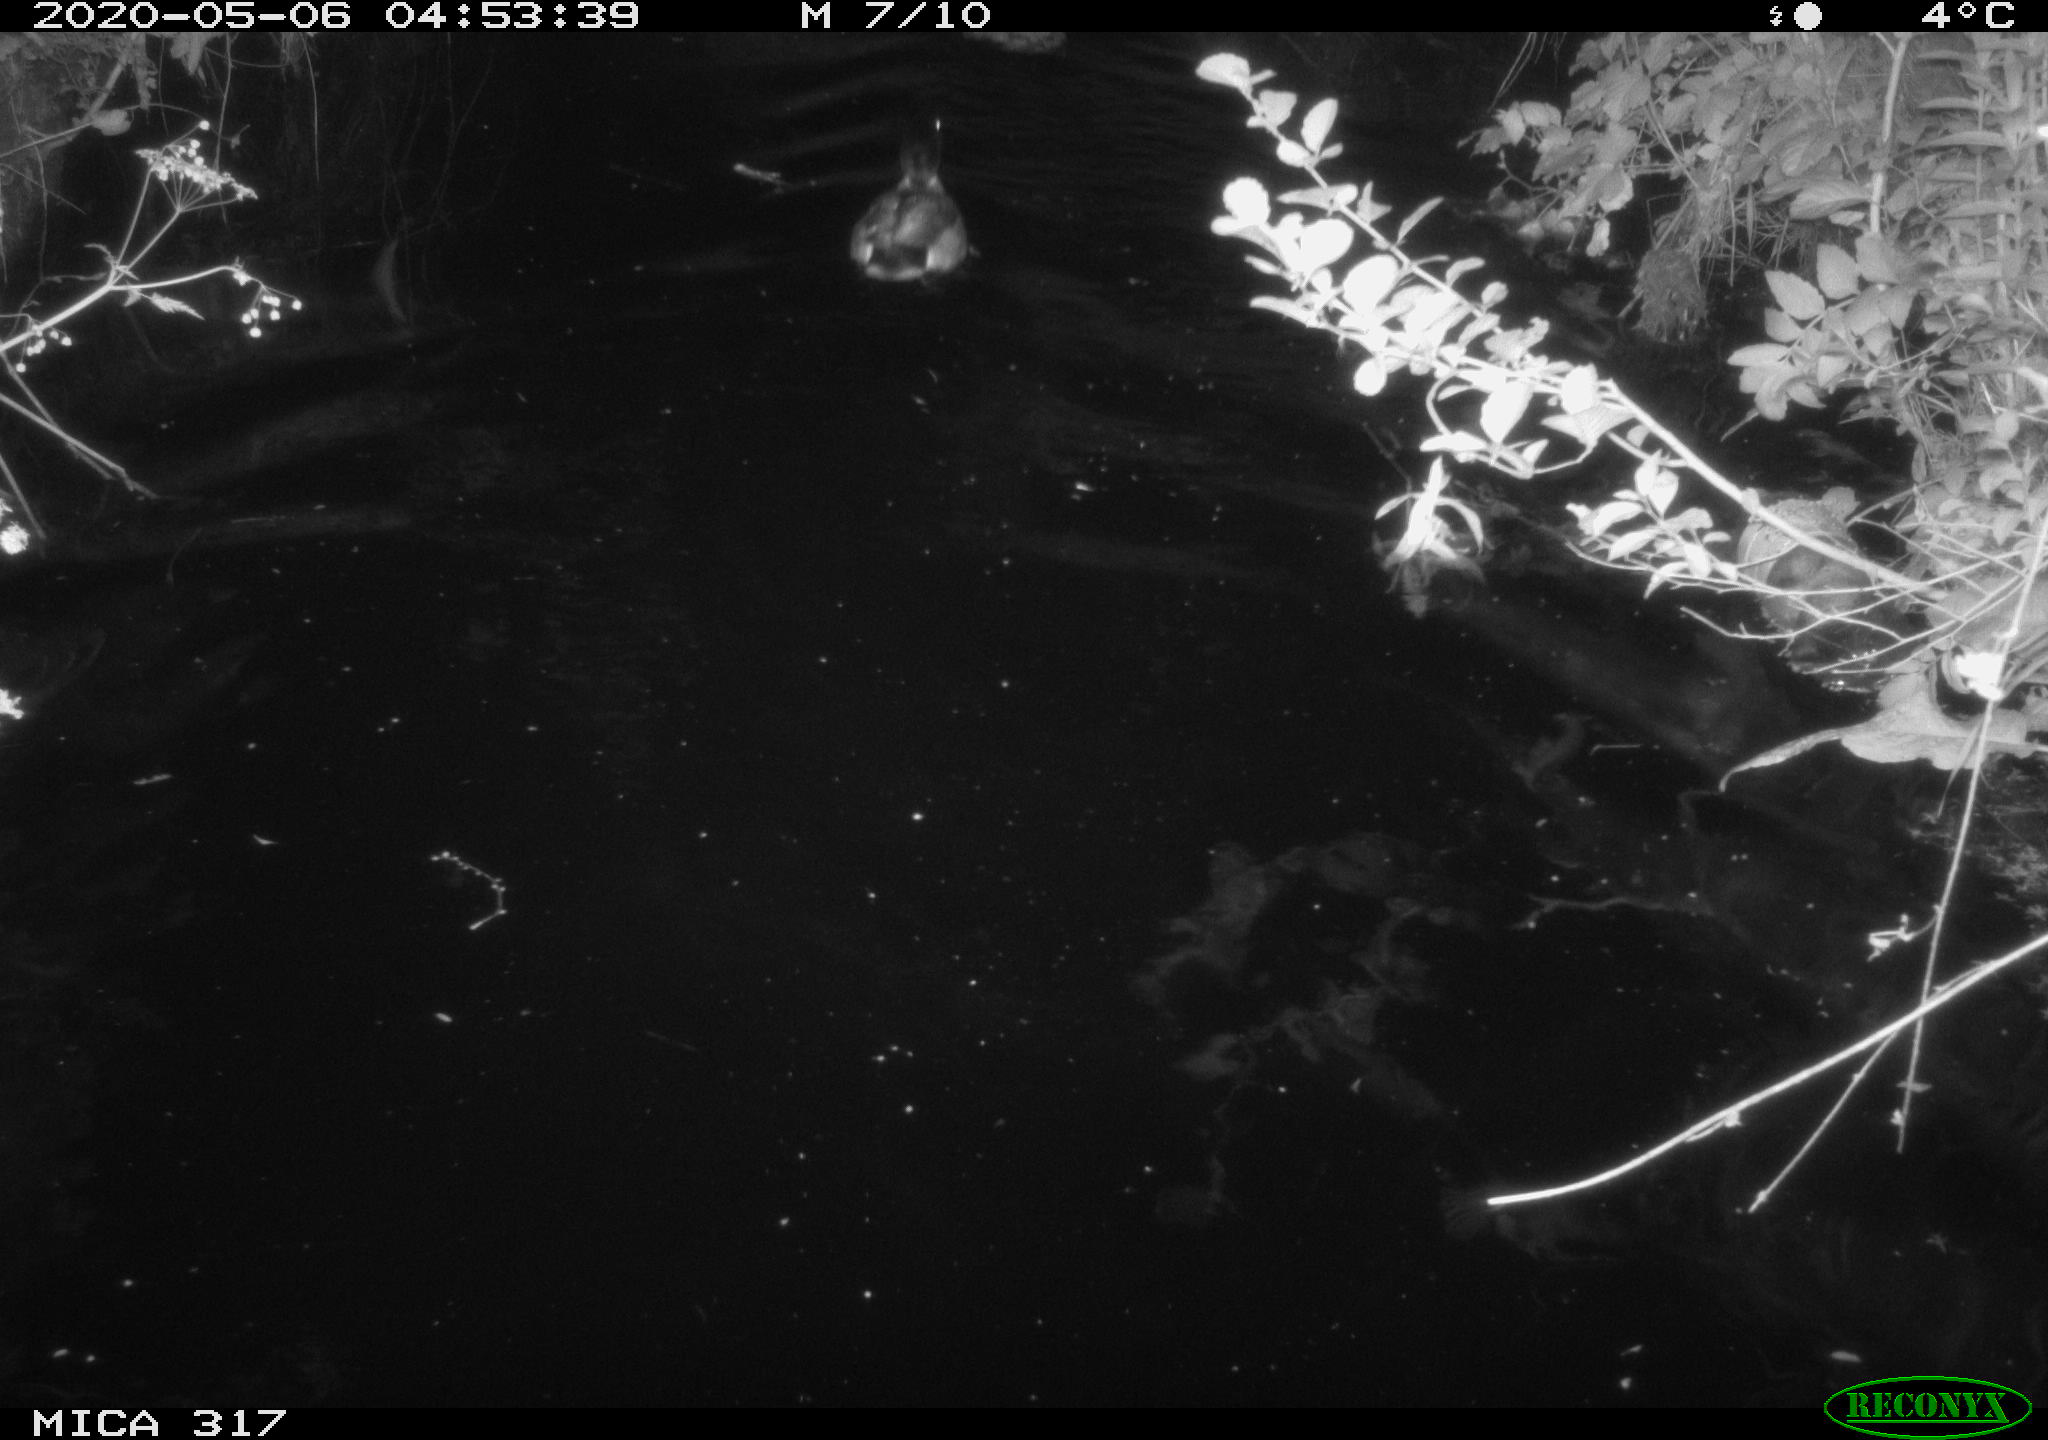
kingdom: Animalia
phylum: Chordata
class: Aves
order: Anseriformes
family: Anatidae
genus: Anas
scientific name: Anas platyrhynchos
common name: Mallard
